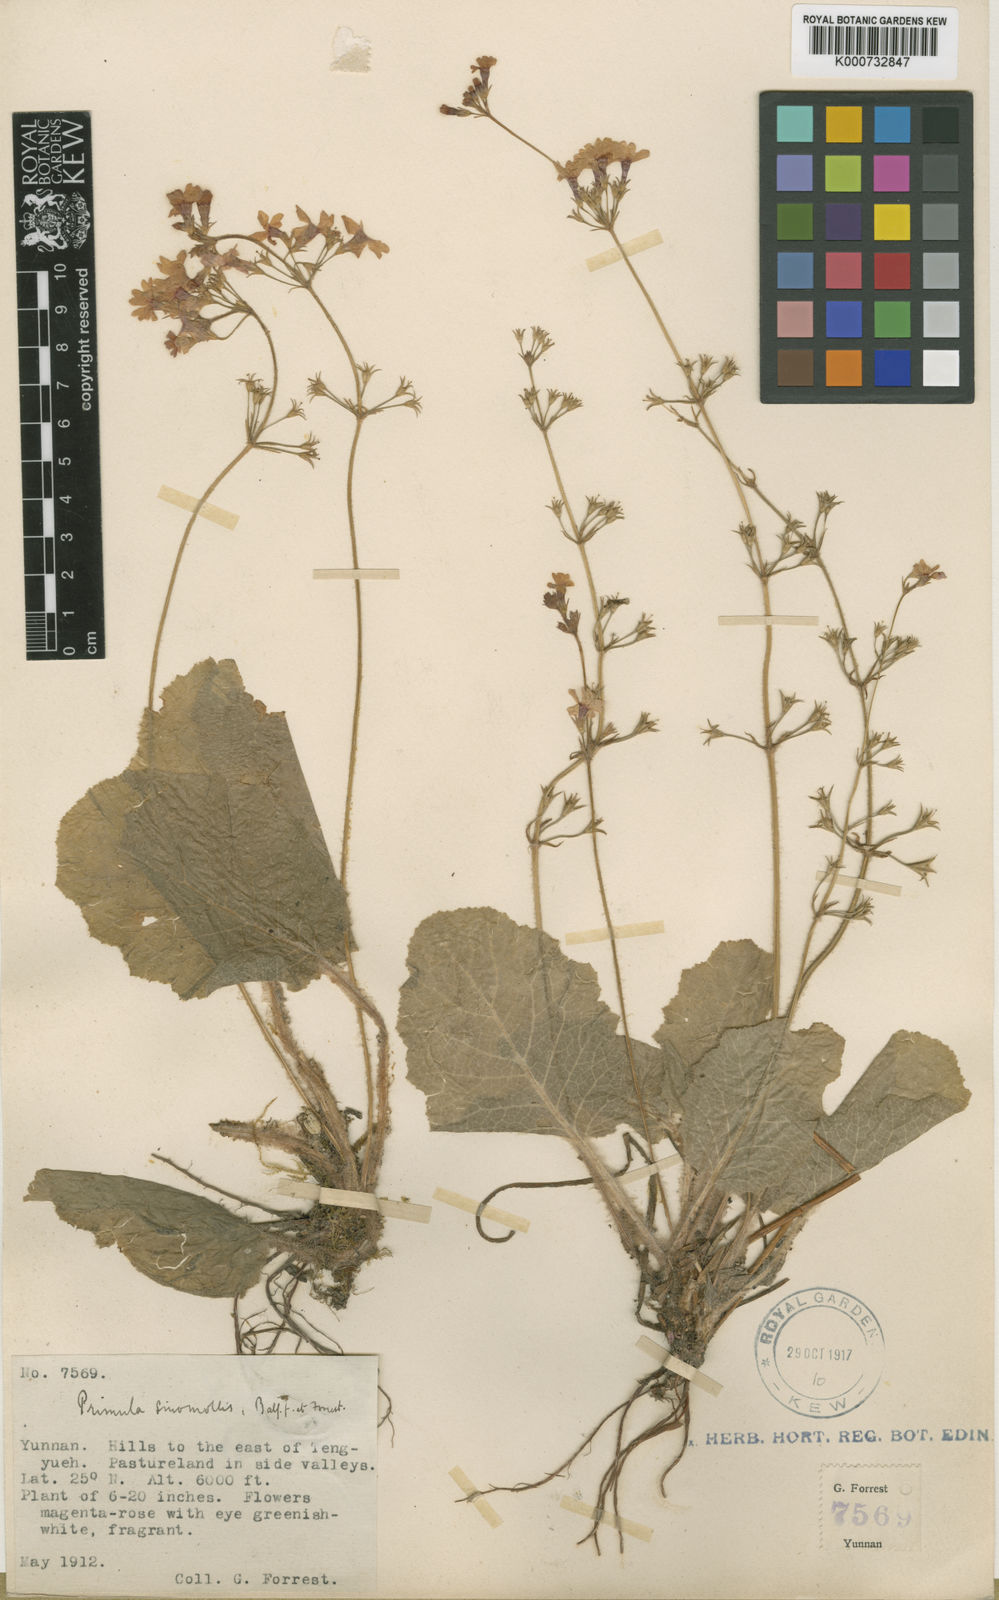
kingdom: Plantae
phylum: Tracheophyta
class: Magnoliopsida
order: Ericales
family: Primulaceae
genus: Primula
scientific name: Primula cinerascens
